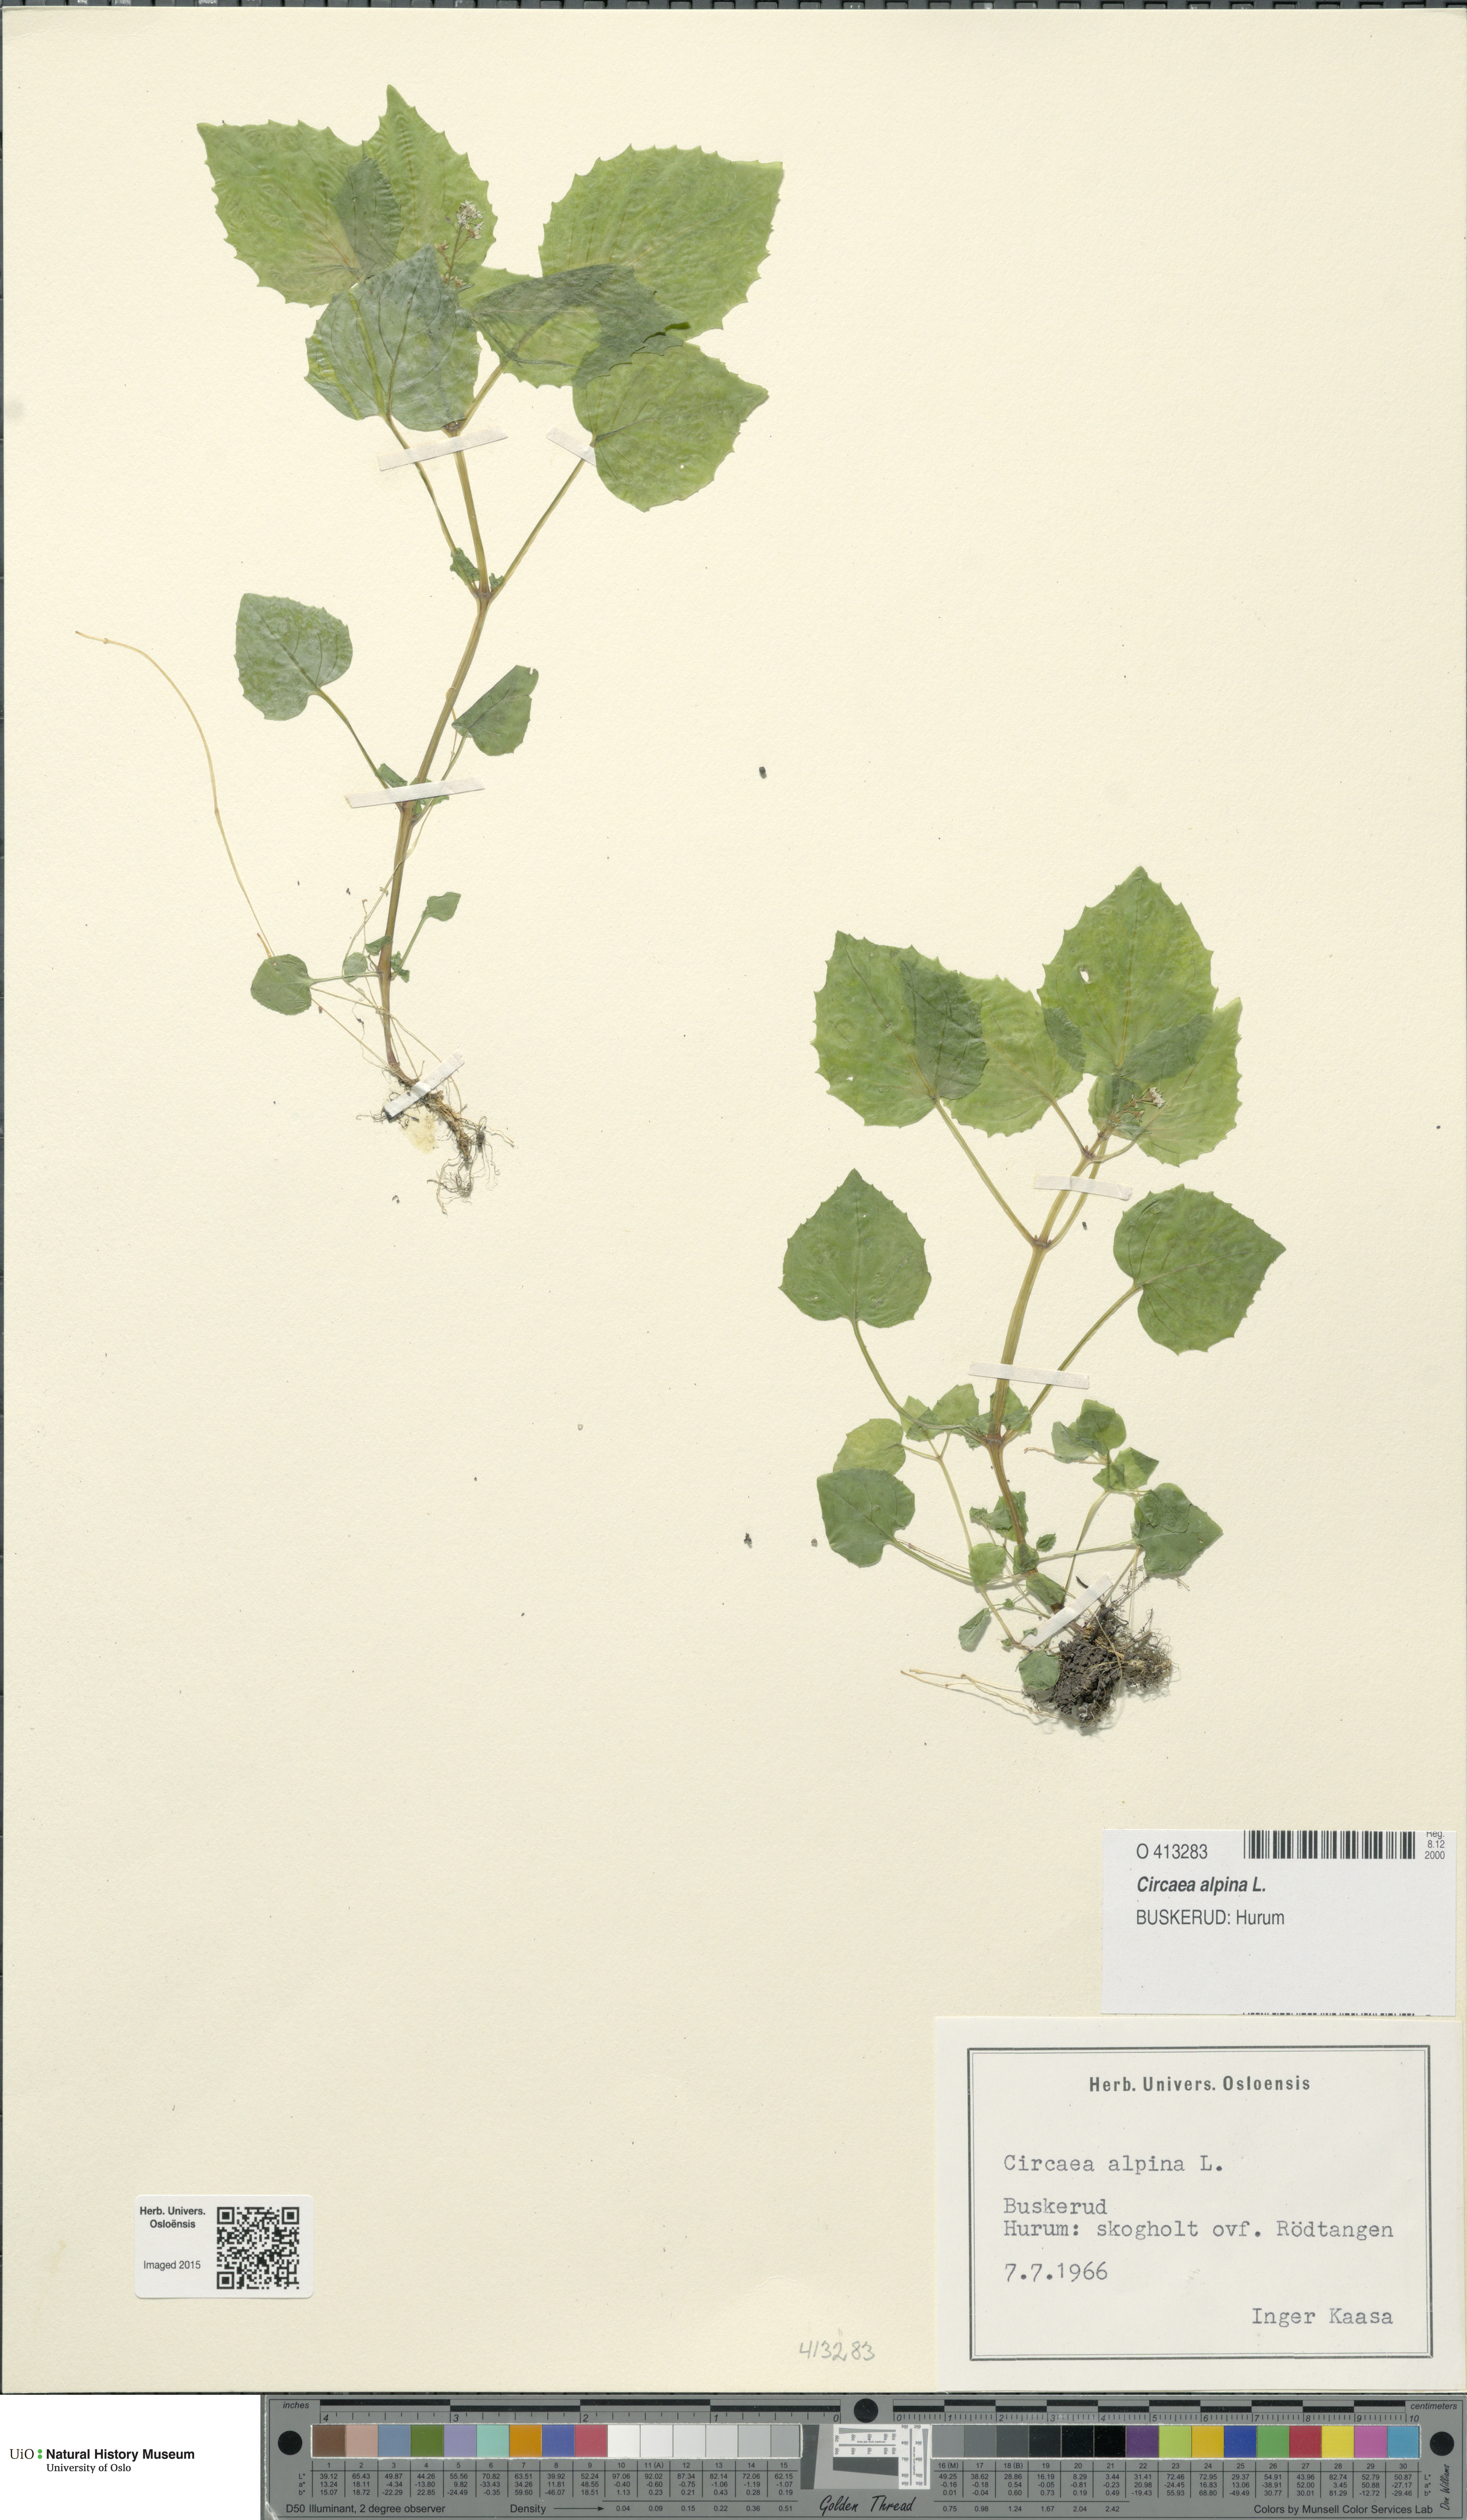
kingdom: Plantae
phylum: Tracheophyta
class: Magnoliopsida
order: Myrtales
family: Onagraceae
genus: Circaea
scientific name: Circaea alpina
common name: Alpine enchanter's-nightshade
